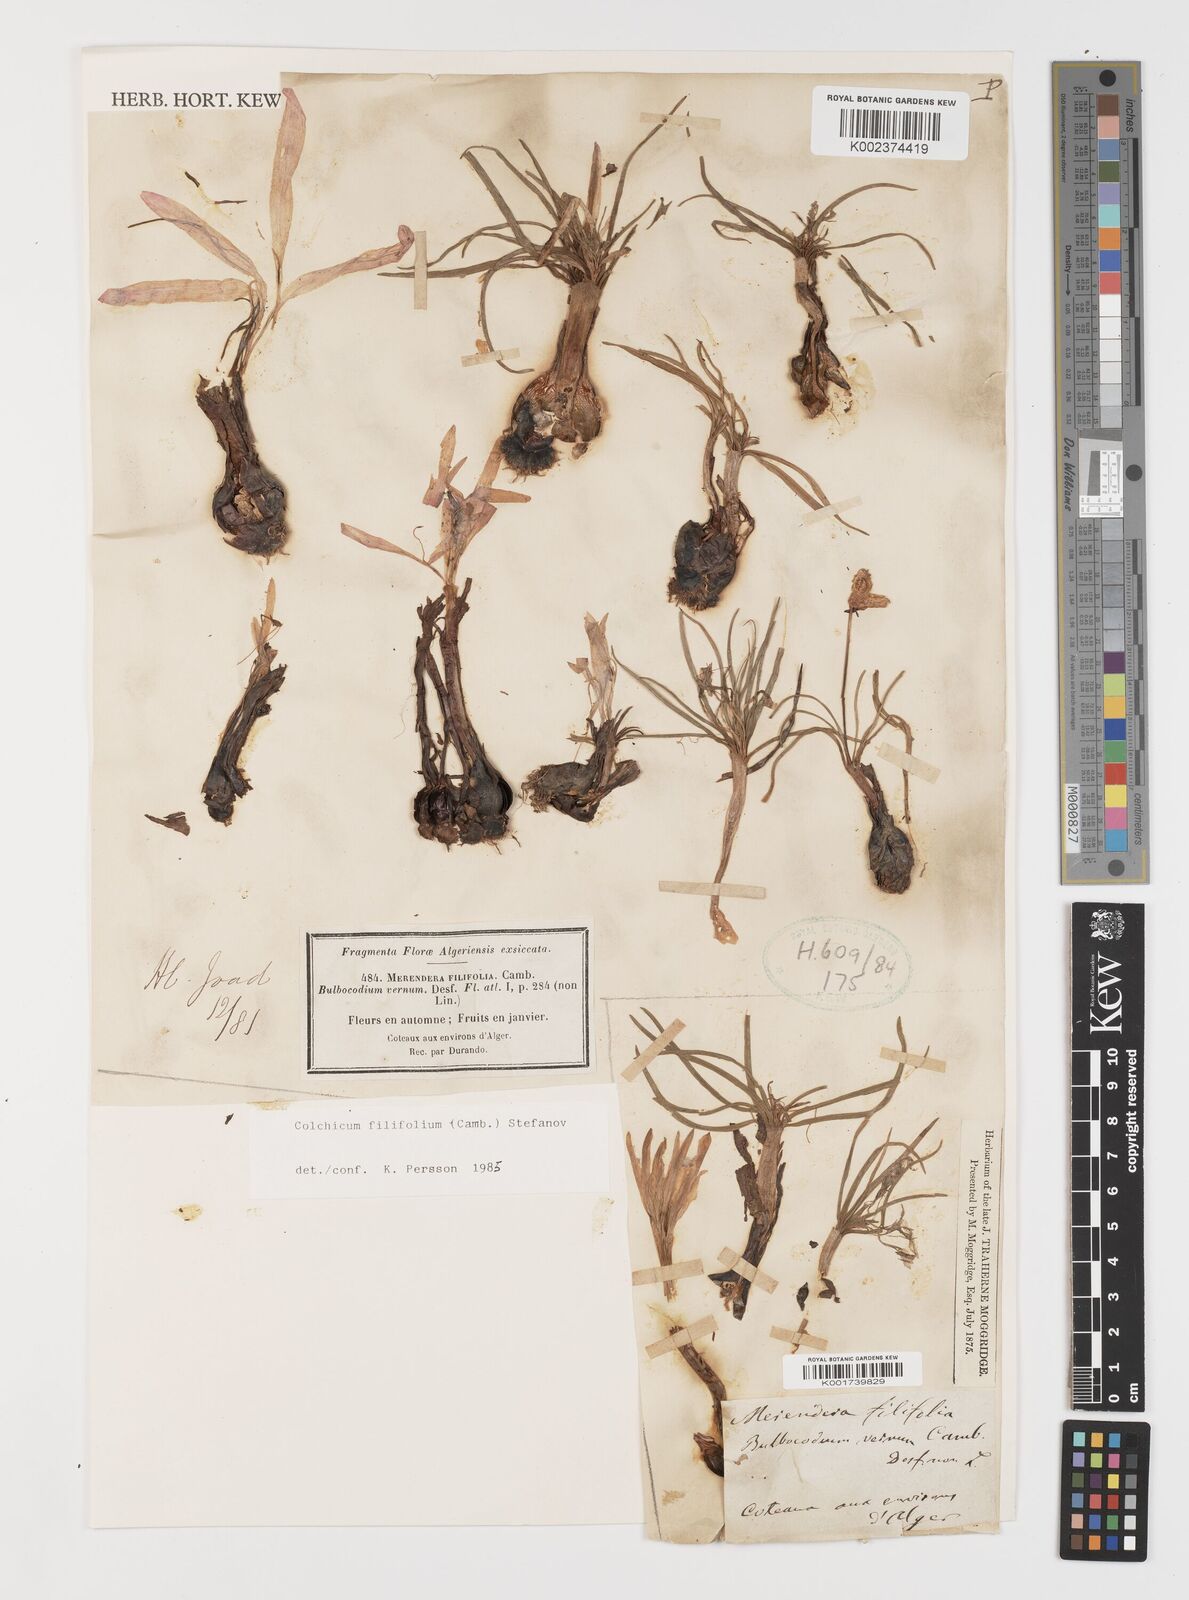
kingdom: Plantae
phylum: Tracheophyta
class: Liliopsida
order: Liliales
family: Colchicaceae
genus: Colchicum
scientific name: Colchicum filifolium
